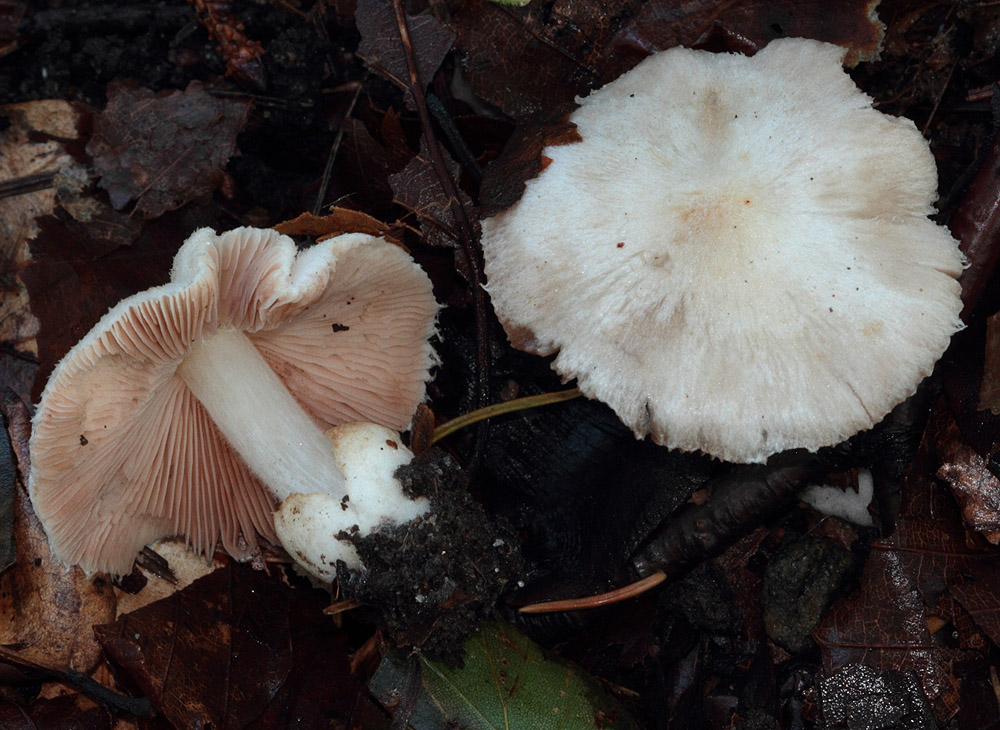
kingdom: Fungi
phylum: Basidiomycota
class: Agaricomycetes
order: Agaricales
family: Pluteaceae
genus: Volvariella
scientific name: Volvariella hypopithys
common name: dunstokket posesvamp
